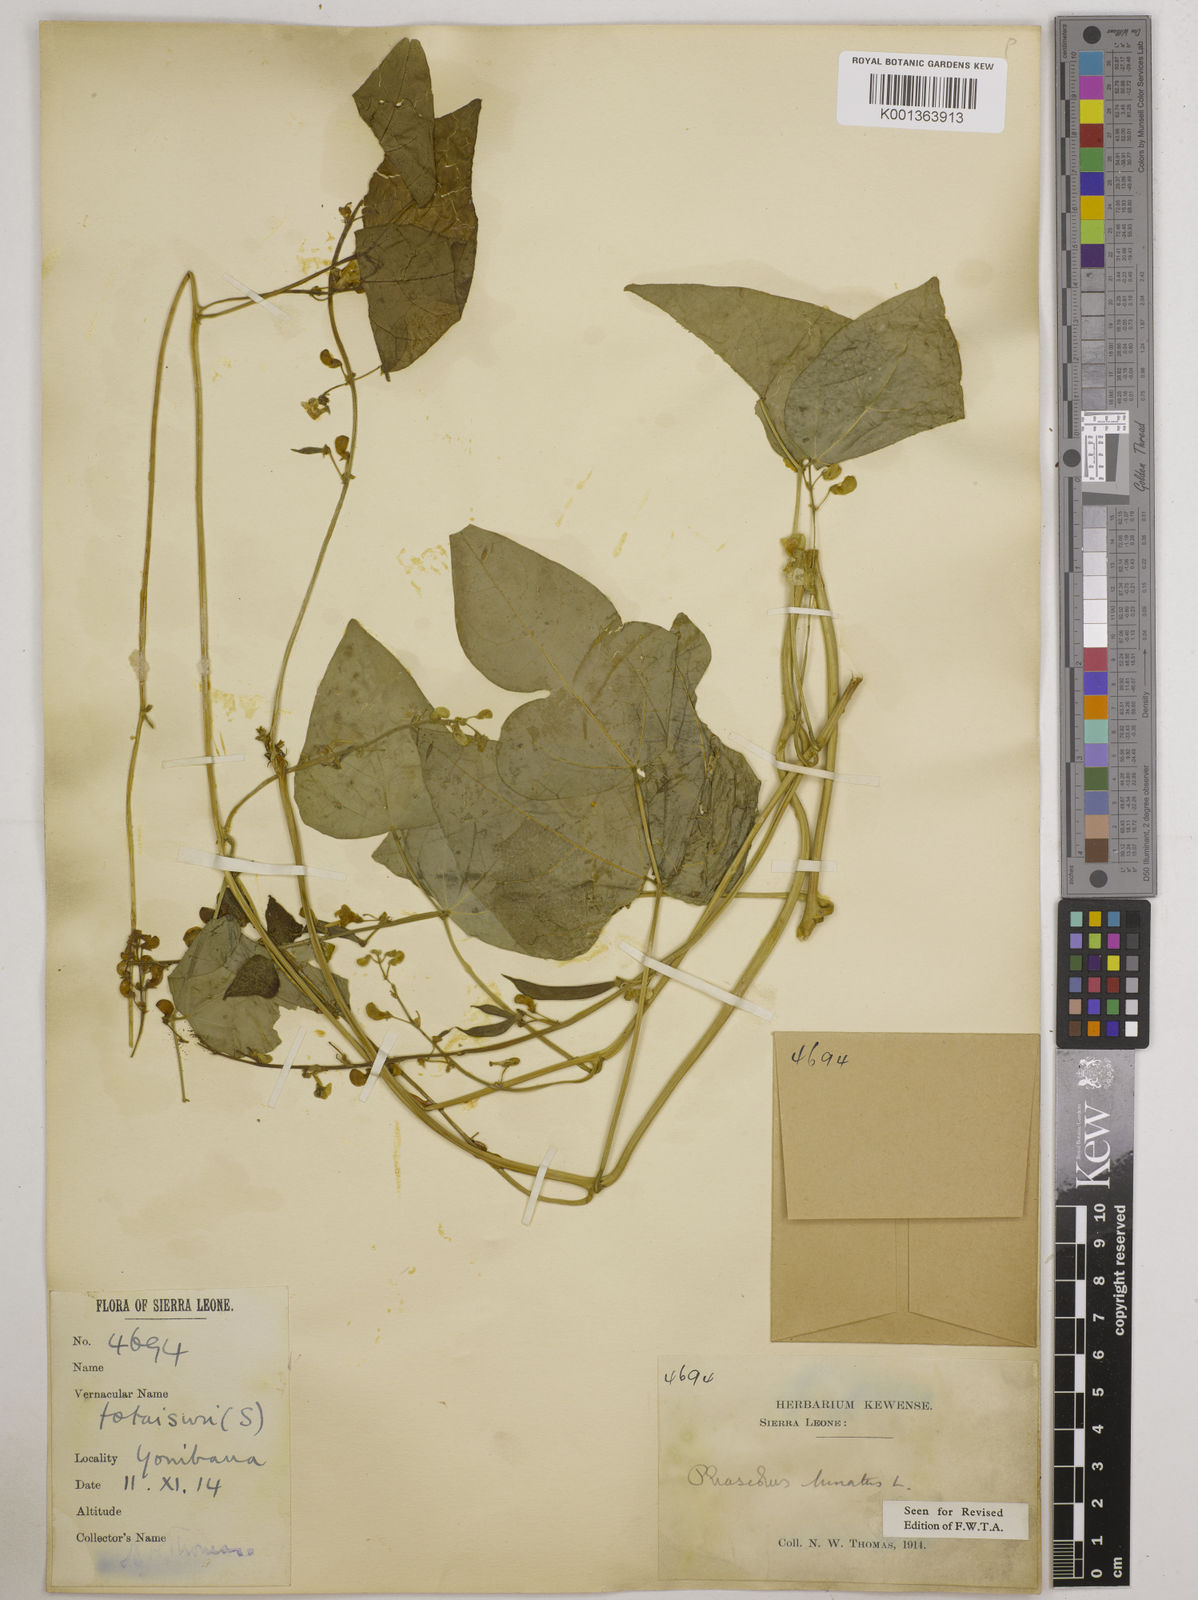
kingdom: Plantae
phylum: Tracheophyta
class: Magnoliopsida
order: Fabales
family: Fabaceae
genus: Phaseolus
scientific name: Phaseolus lunatus
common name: Sieva bean
